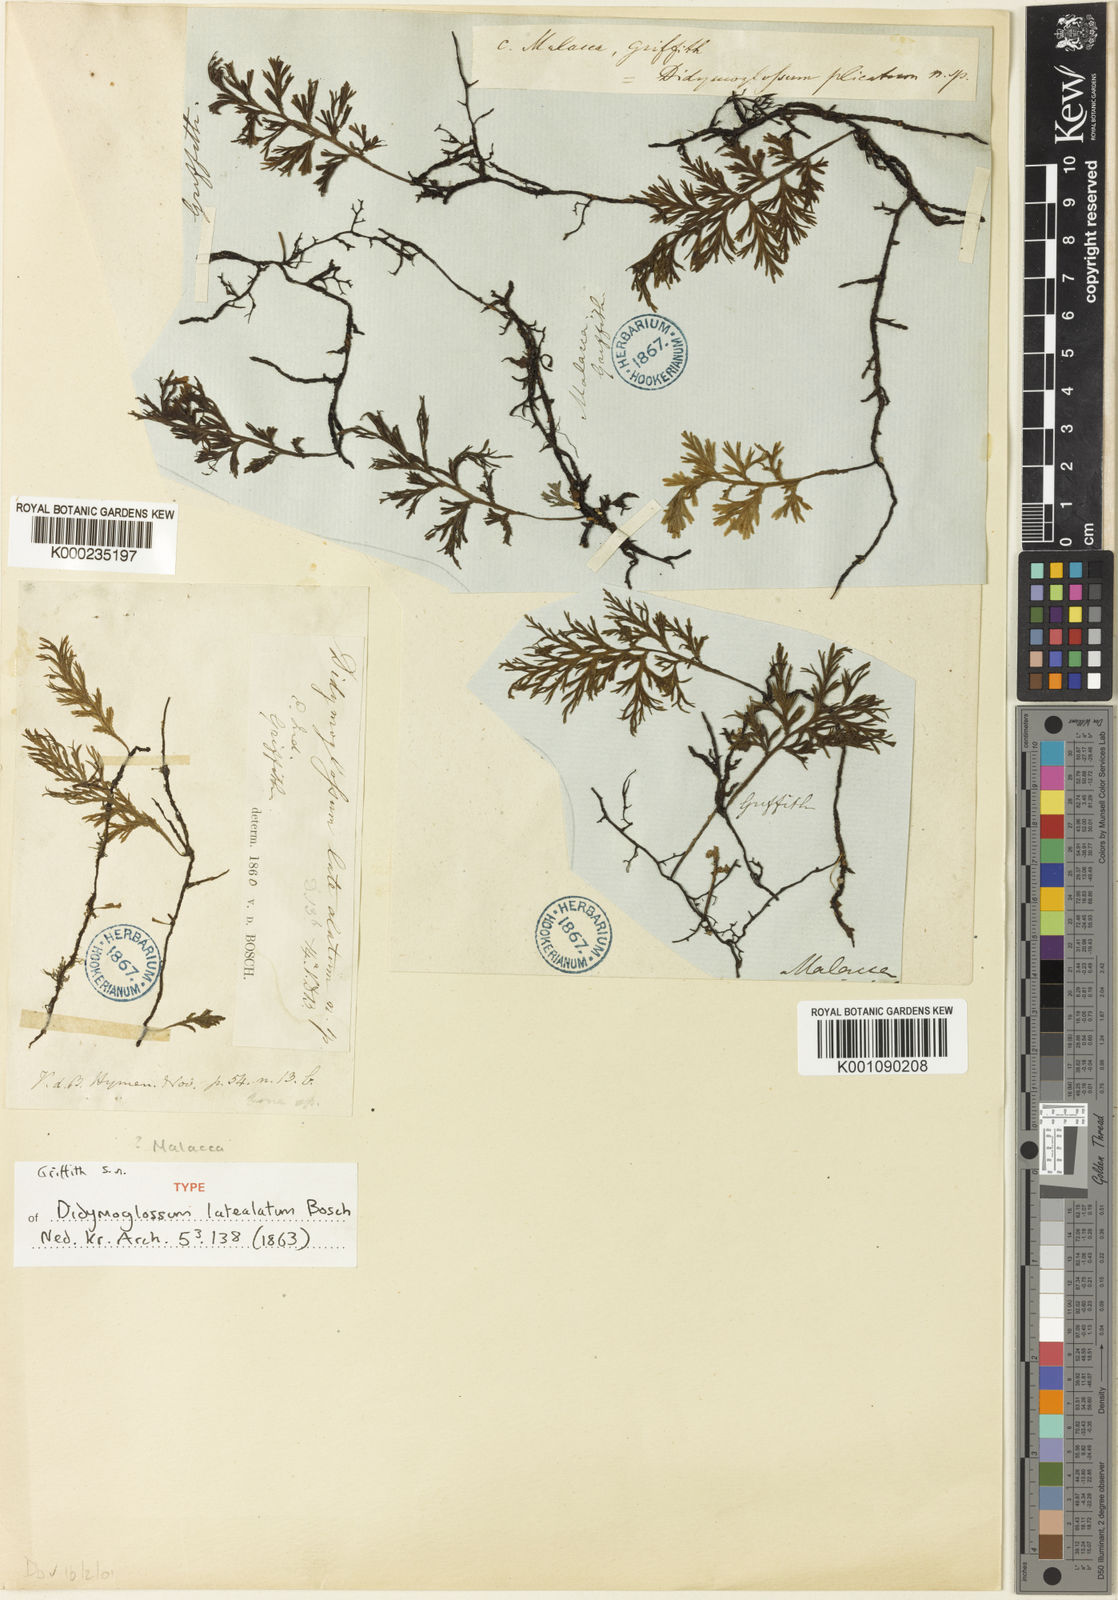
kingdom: Plantae
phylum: Tracheophyta
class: Polypodiopsida
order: Hymenophyllales
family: Hymenophyllaceae
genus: Crepidomanes
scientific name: Crepidomanes latealatum
